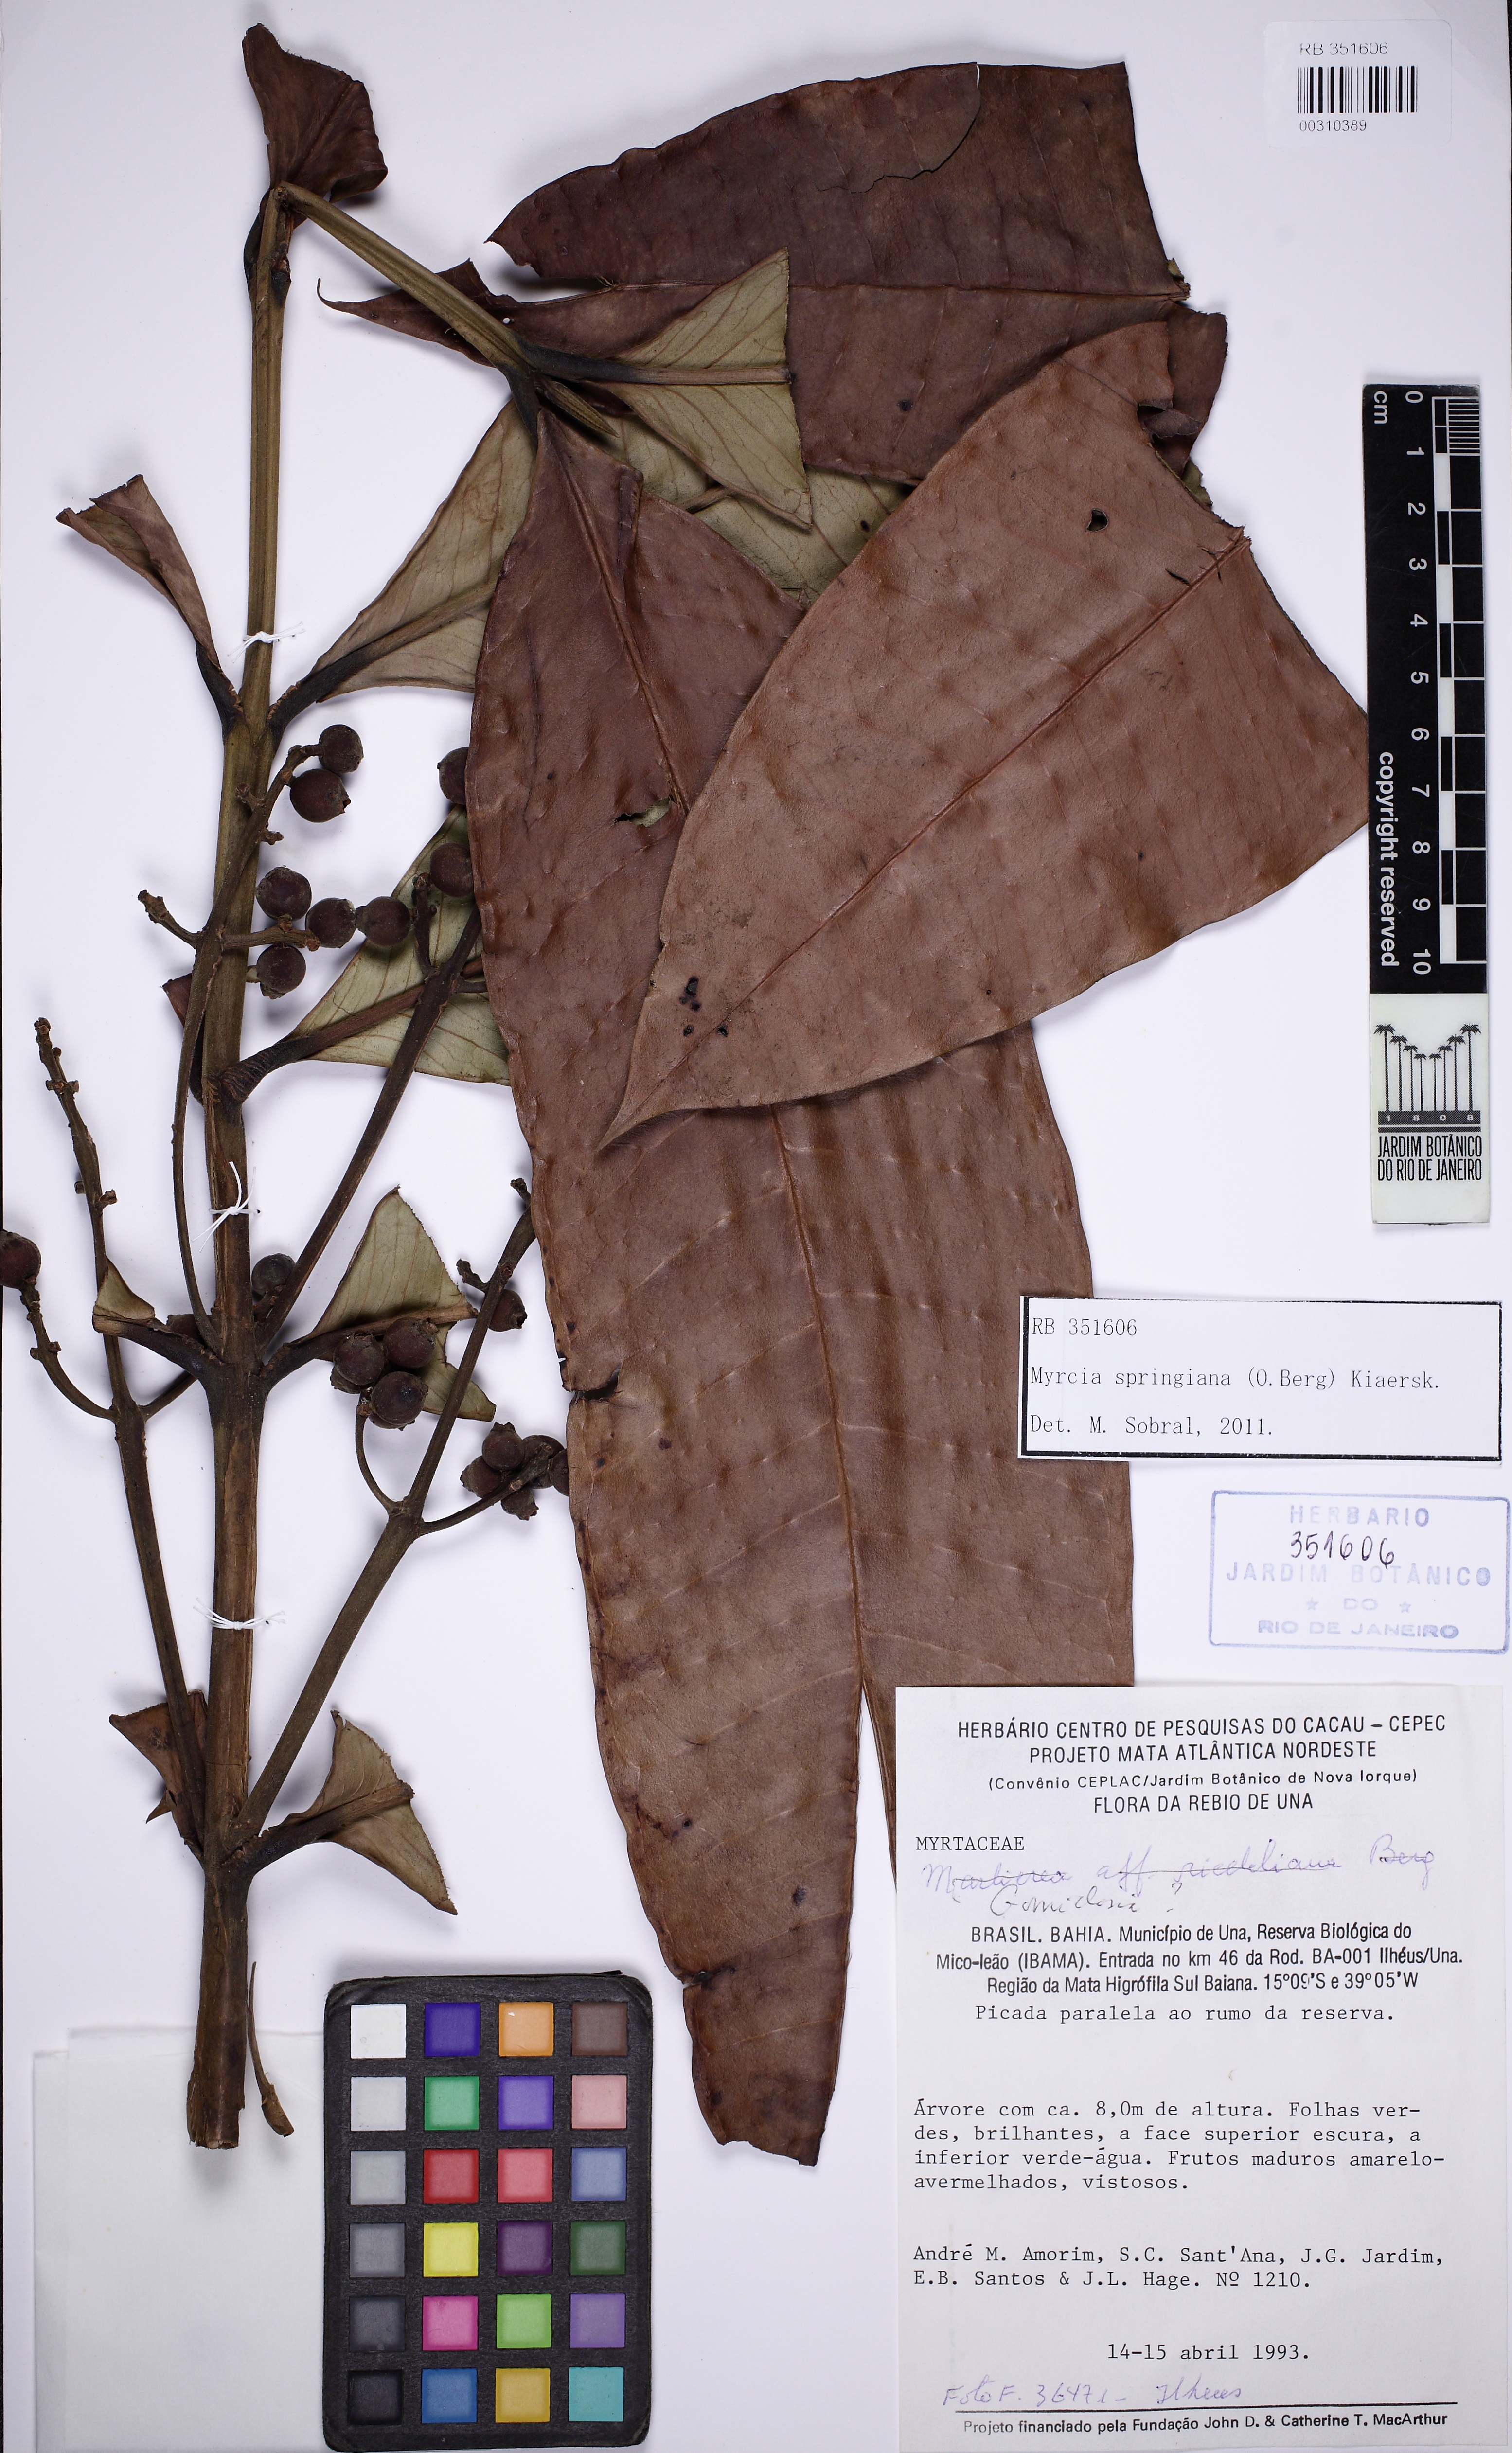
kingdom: Plantae
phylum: Tracheophyta
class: Magnoliopsida
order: Myrtales
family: Myrtaceae
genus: Myrcia
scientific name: Myrcia springiana
